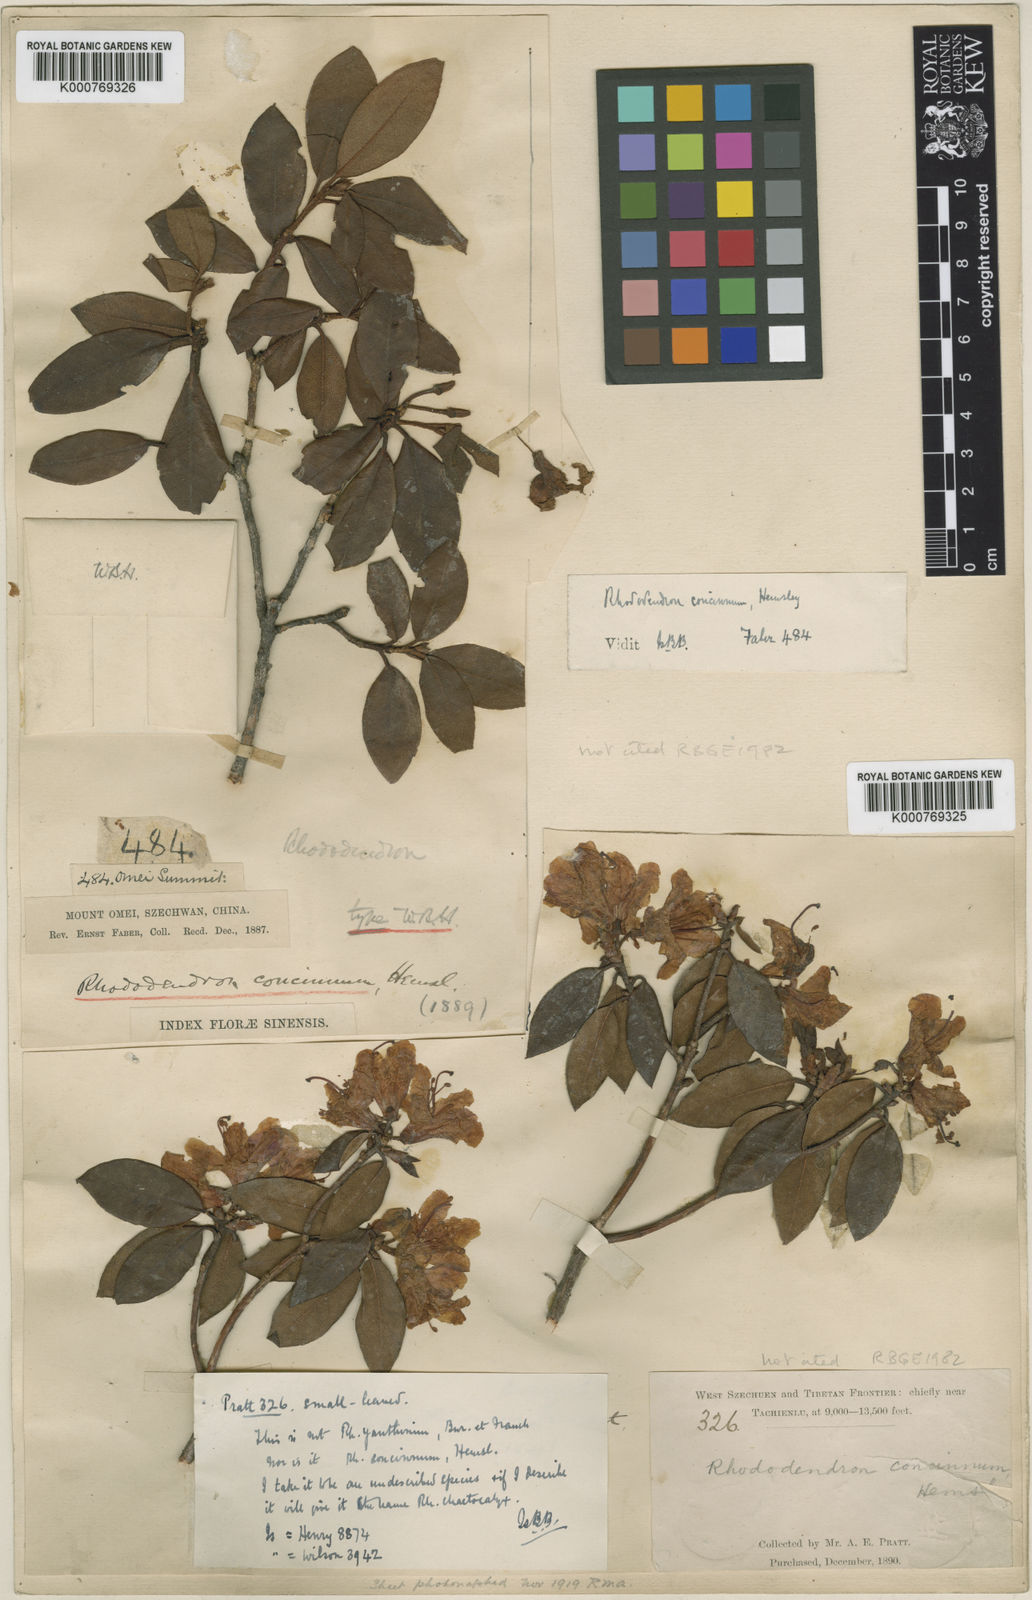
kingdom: Plantae
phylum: Tracheophyta
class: Magnoliopsida
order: Ericales
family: Ericaceae
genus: Rhododendron
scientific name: Rhododendron concinnum
